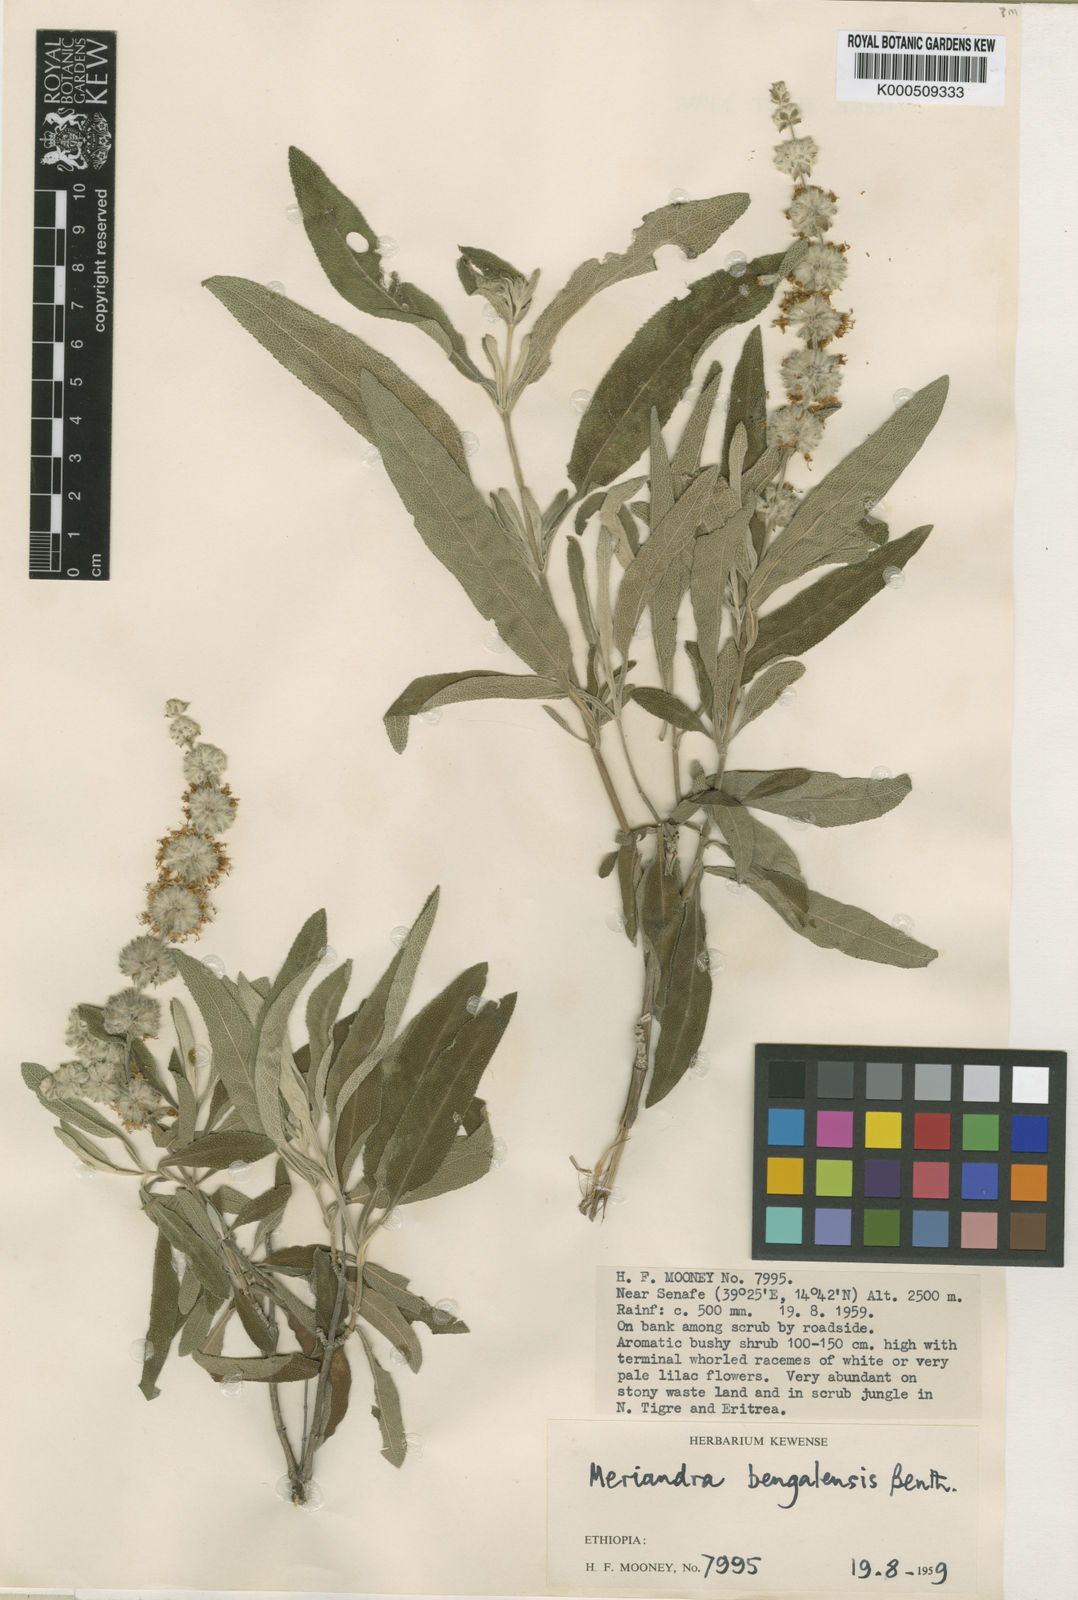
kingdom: Plantae
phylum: Tracheophyta
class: Magnoliopsida
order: Lamiales
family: Lamiaceae
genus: Salvia
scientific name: Salvia dianthera
